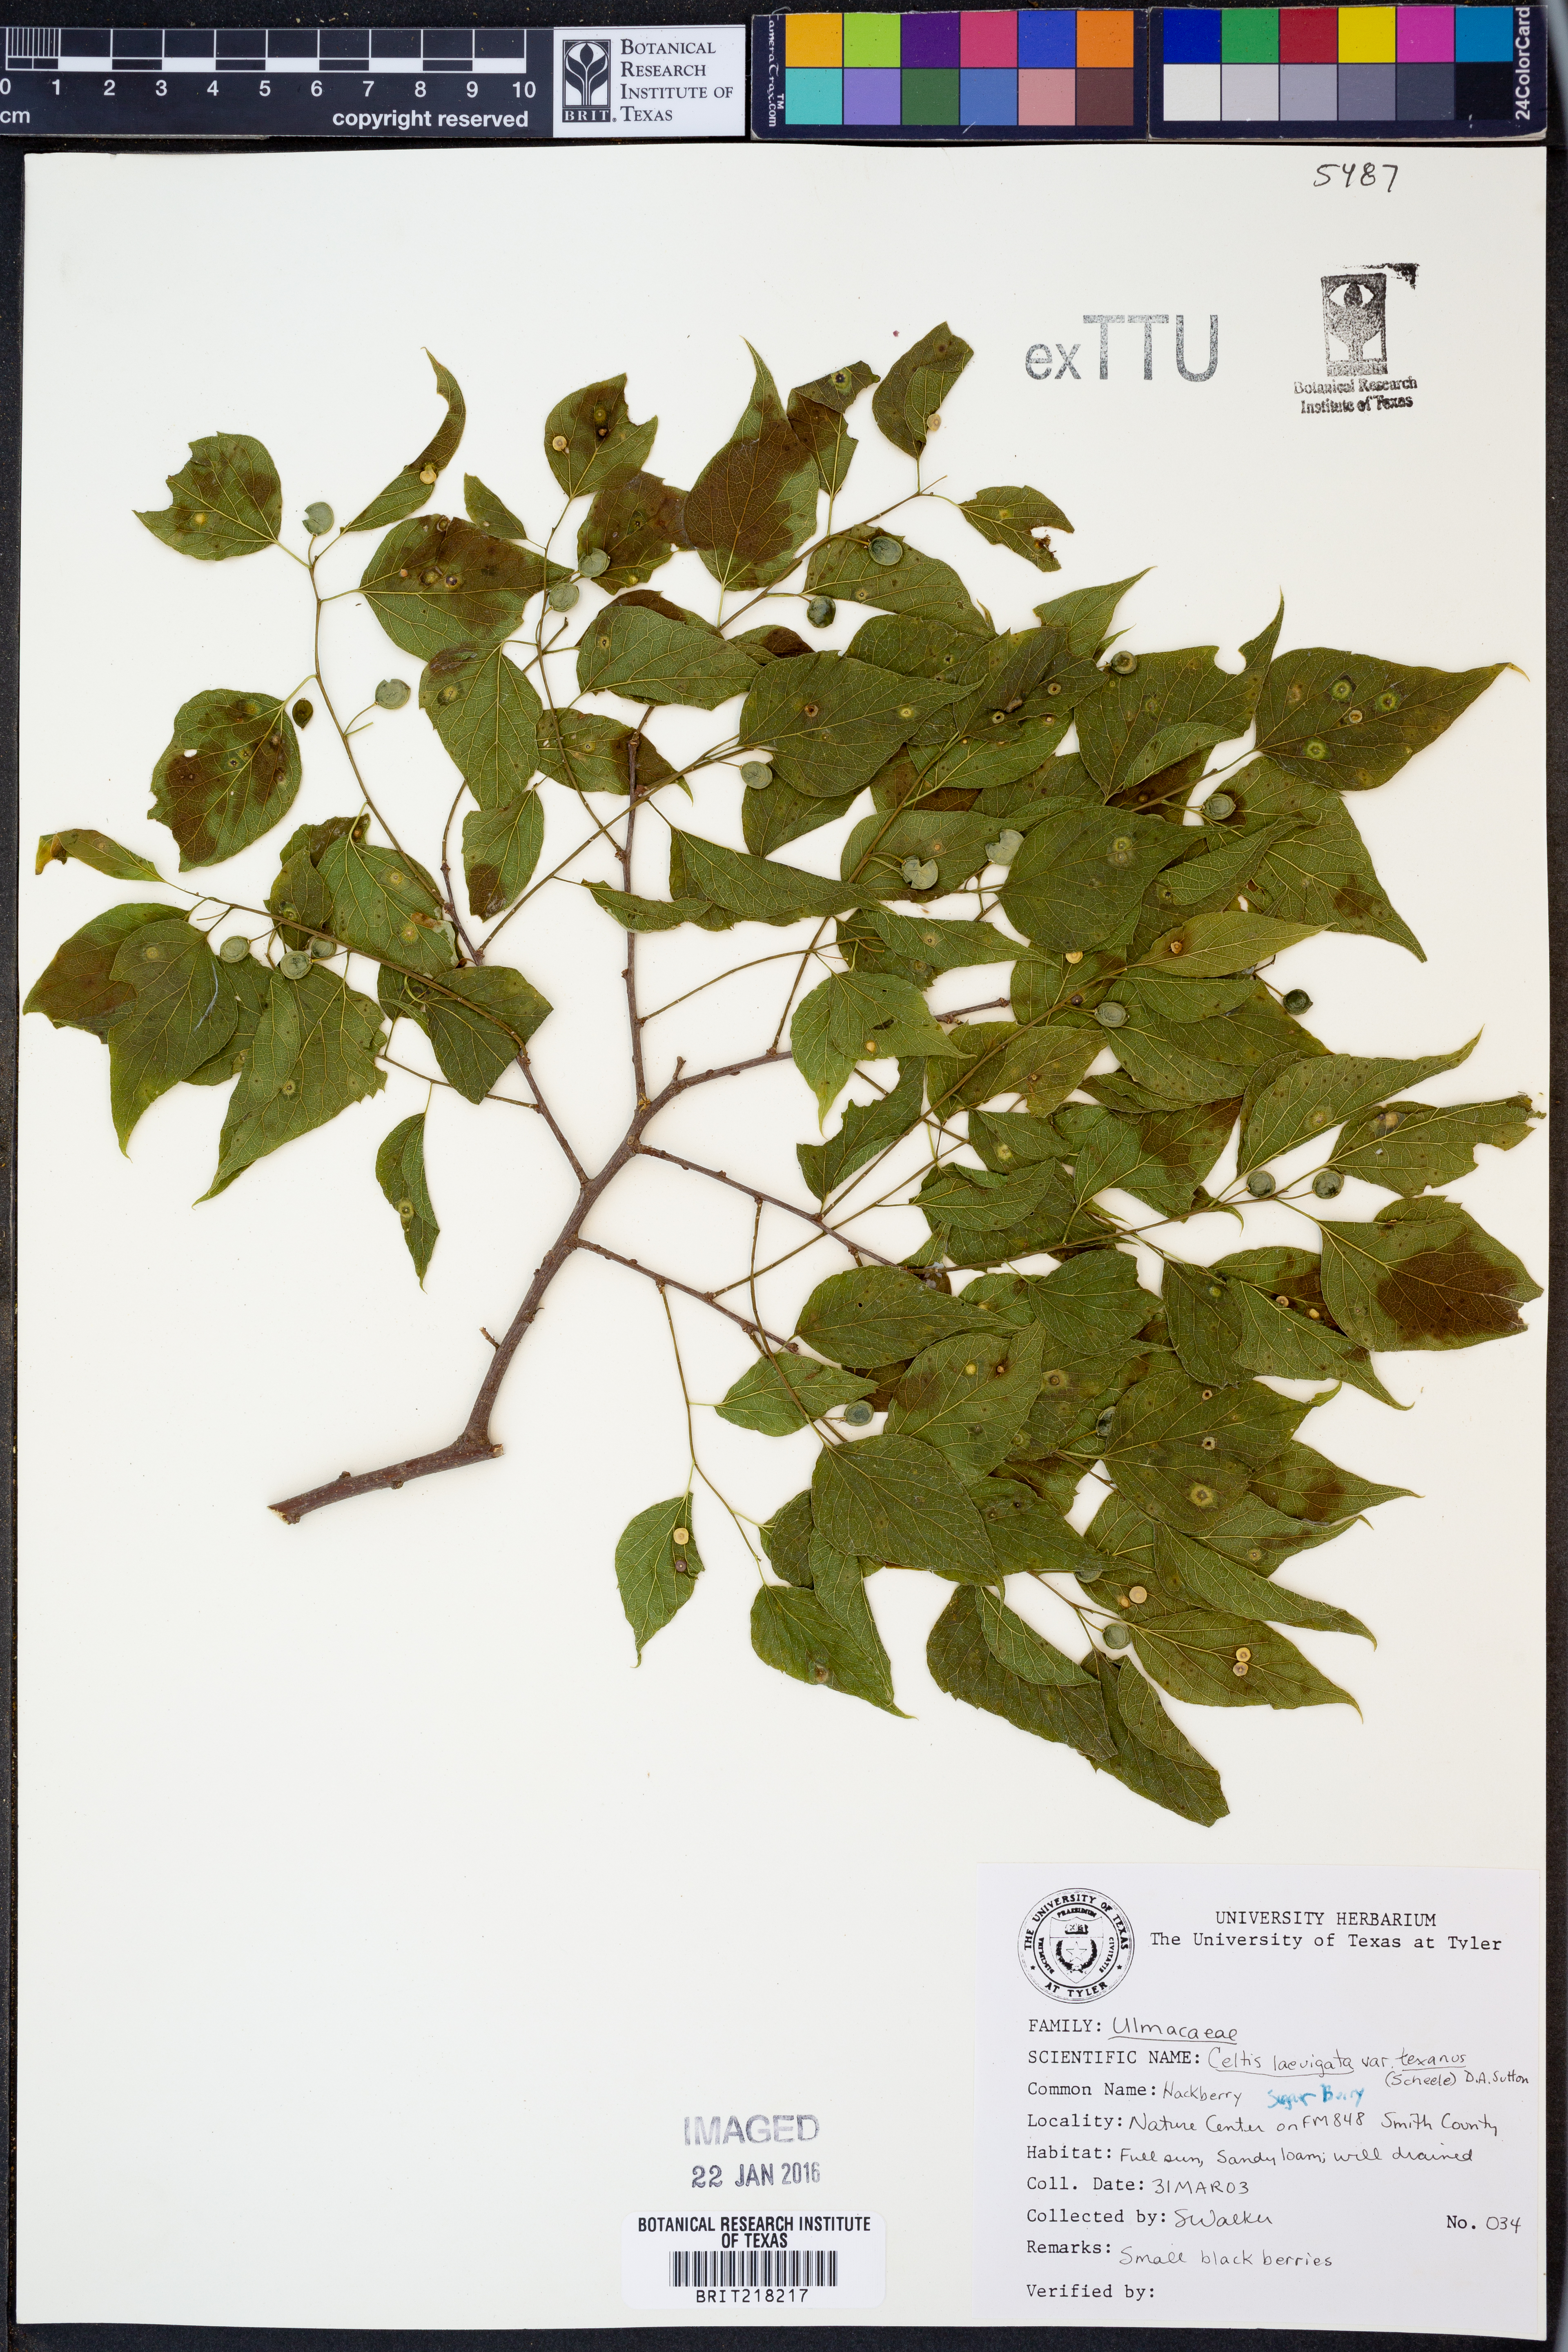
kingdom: Plantae
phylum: Tracheophyta
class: Magnoliopsida
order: Rosales
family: Cannabaceae
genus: Celtis
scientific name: Celtis laevigata
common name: Sugarberry
